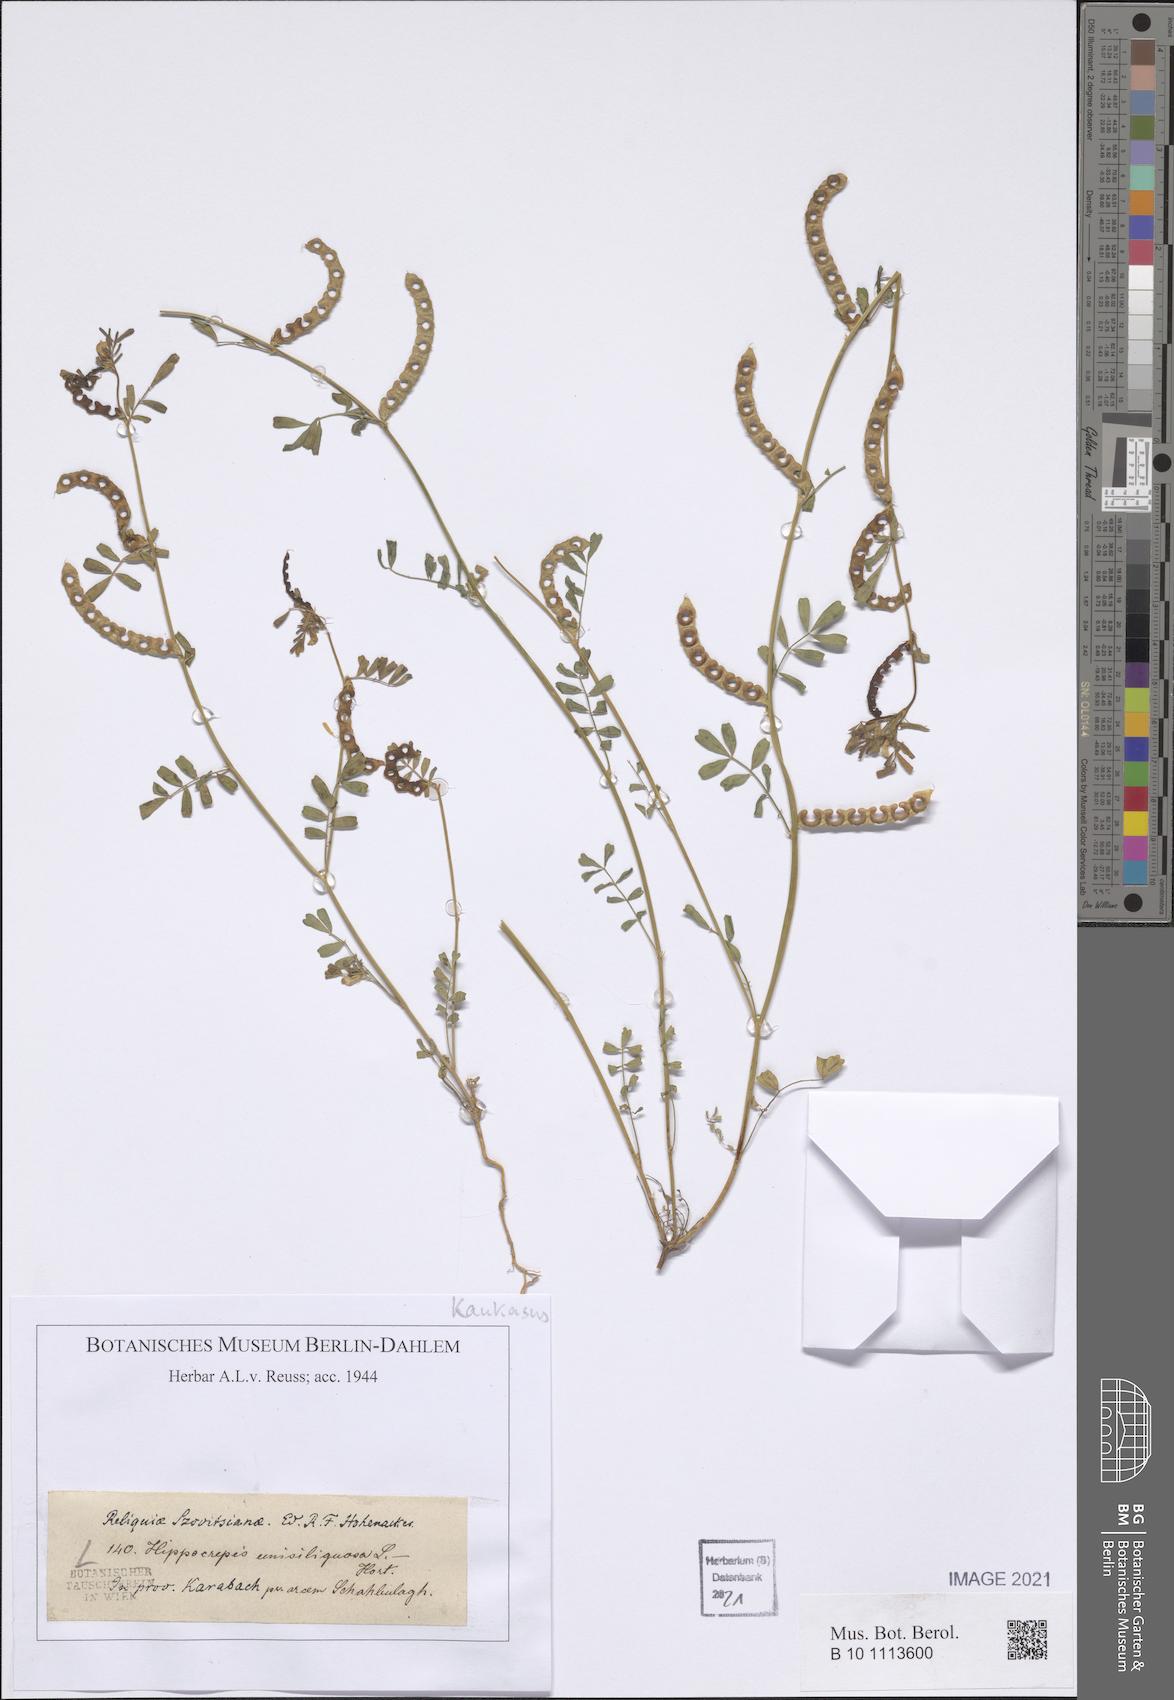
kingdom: Plantae
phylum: Tracheophyta
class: Magnoliopsida
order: Fabales
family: Fabaceae
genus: Hippocrepis
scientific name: Hippocrepis unisiliquosa
